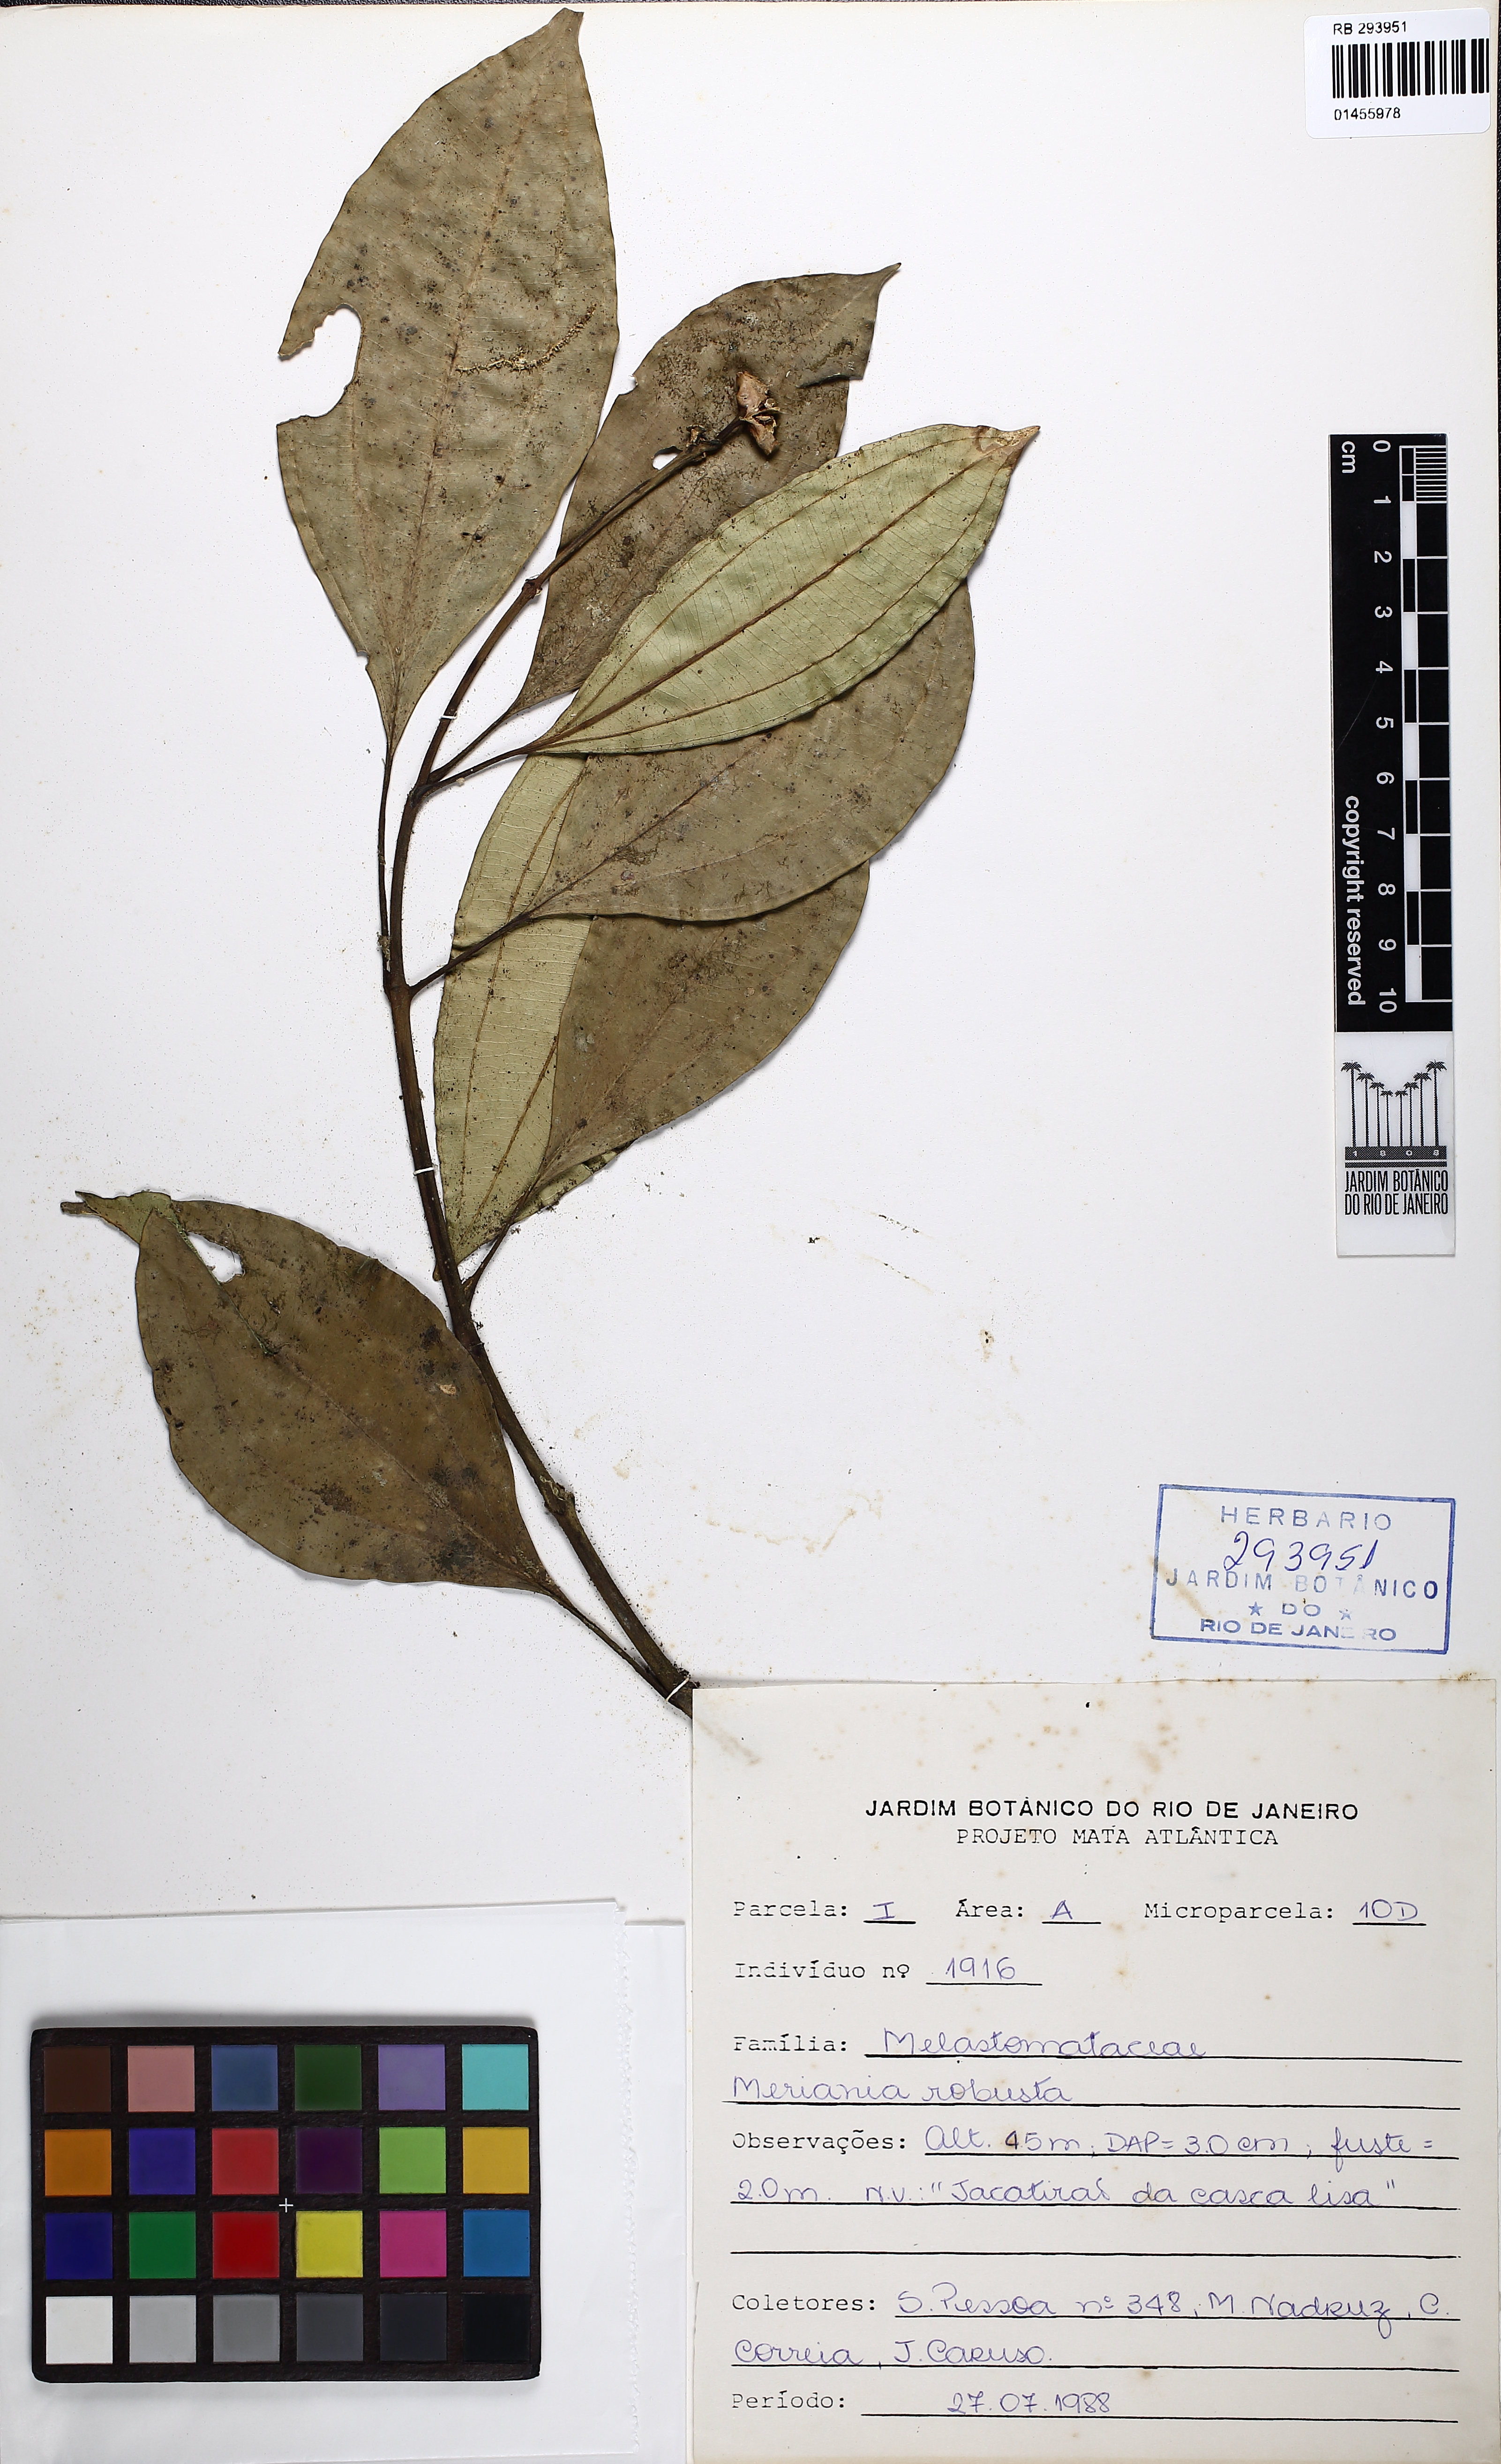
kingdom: Plantae
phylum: Tracheophyta
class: Magnoliopsida
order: Myrtales
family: Melastomataceae
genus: Meriania
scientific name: Meriania robusta
